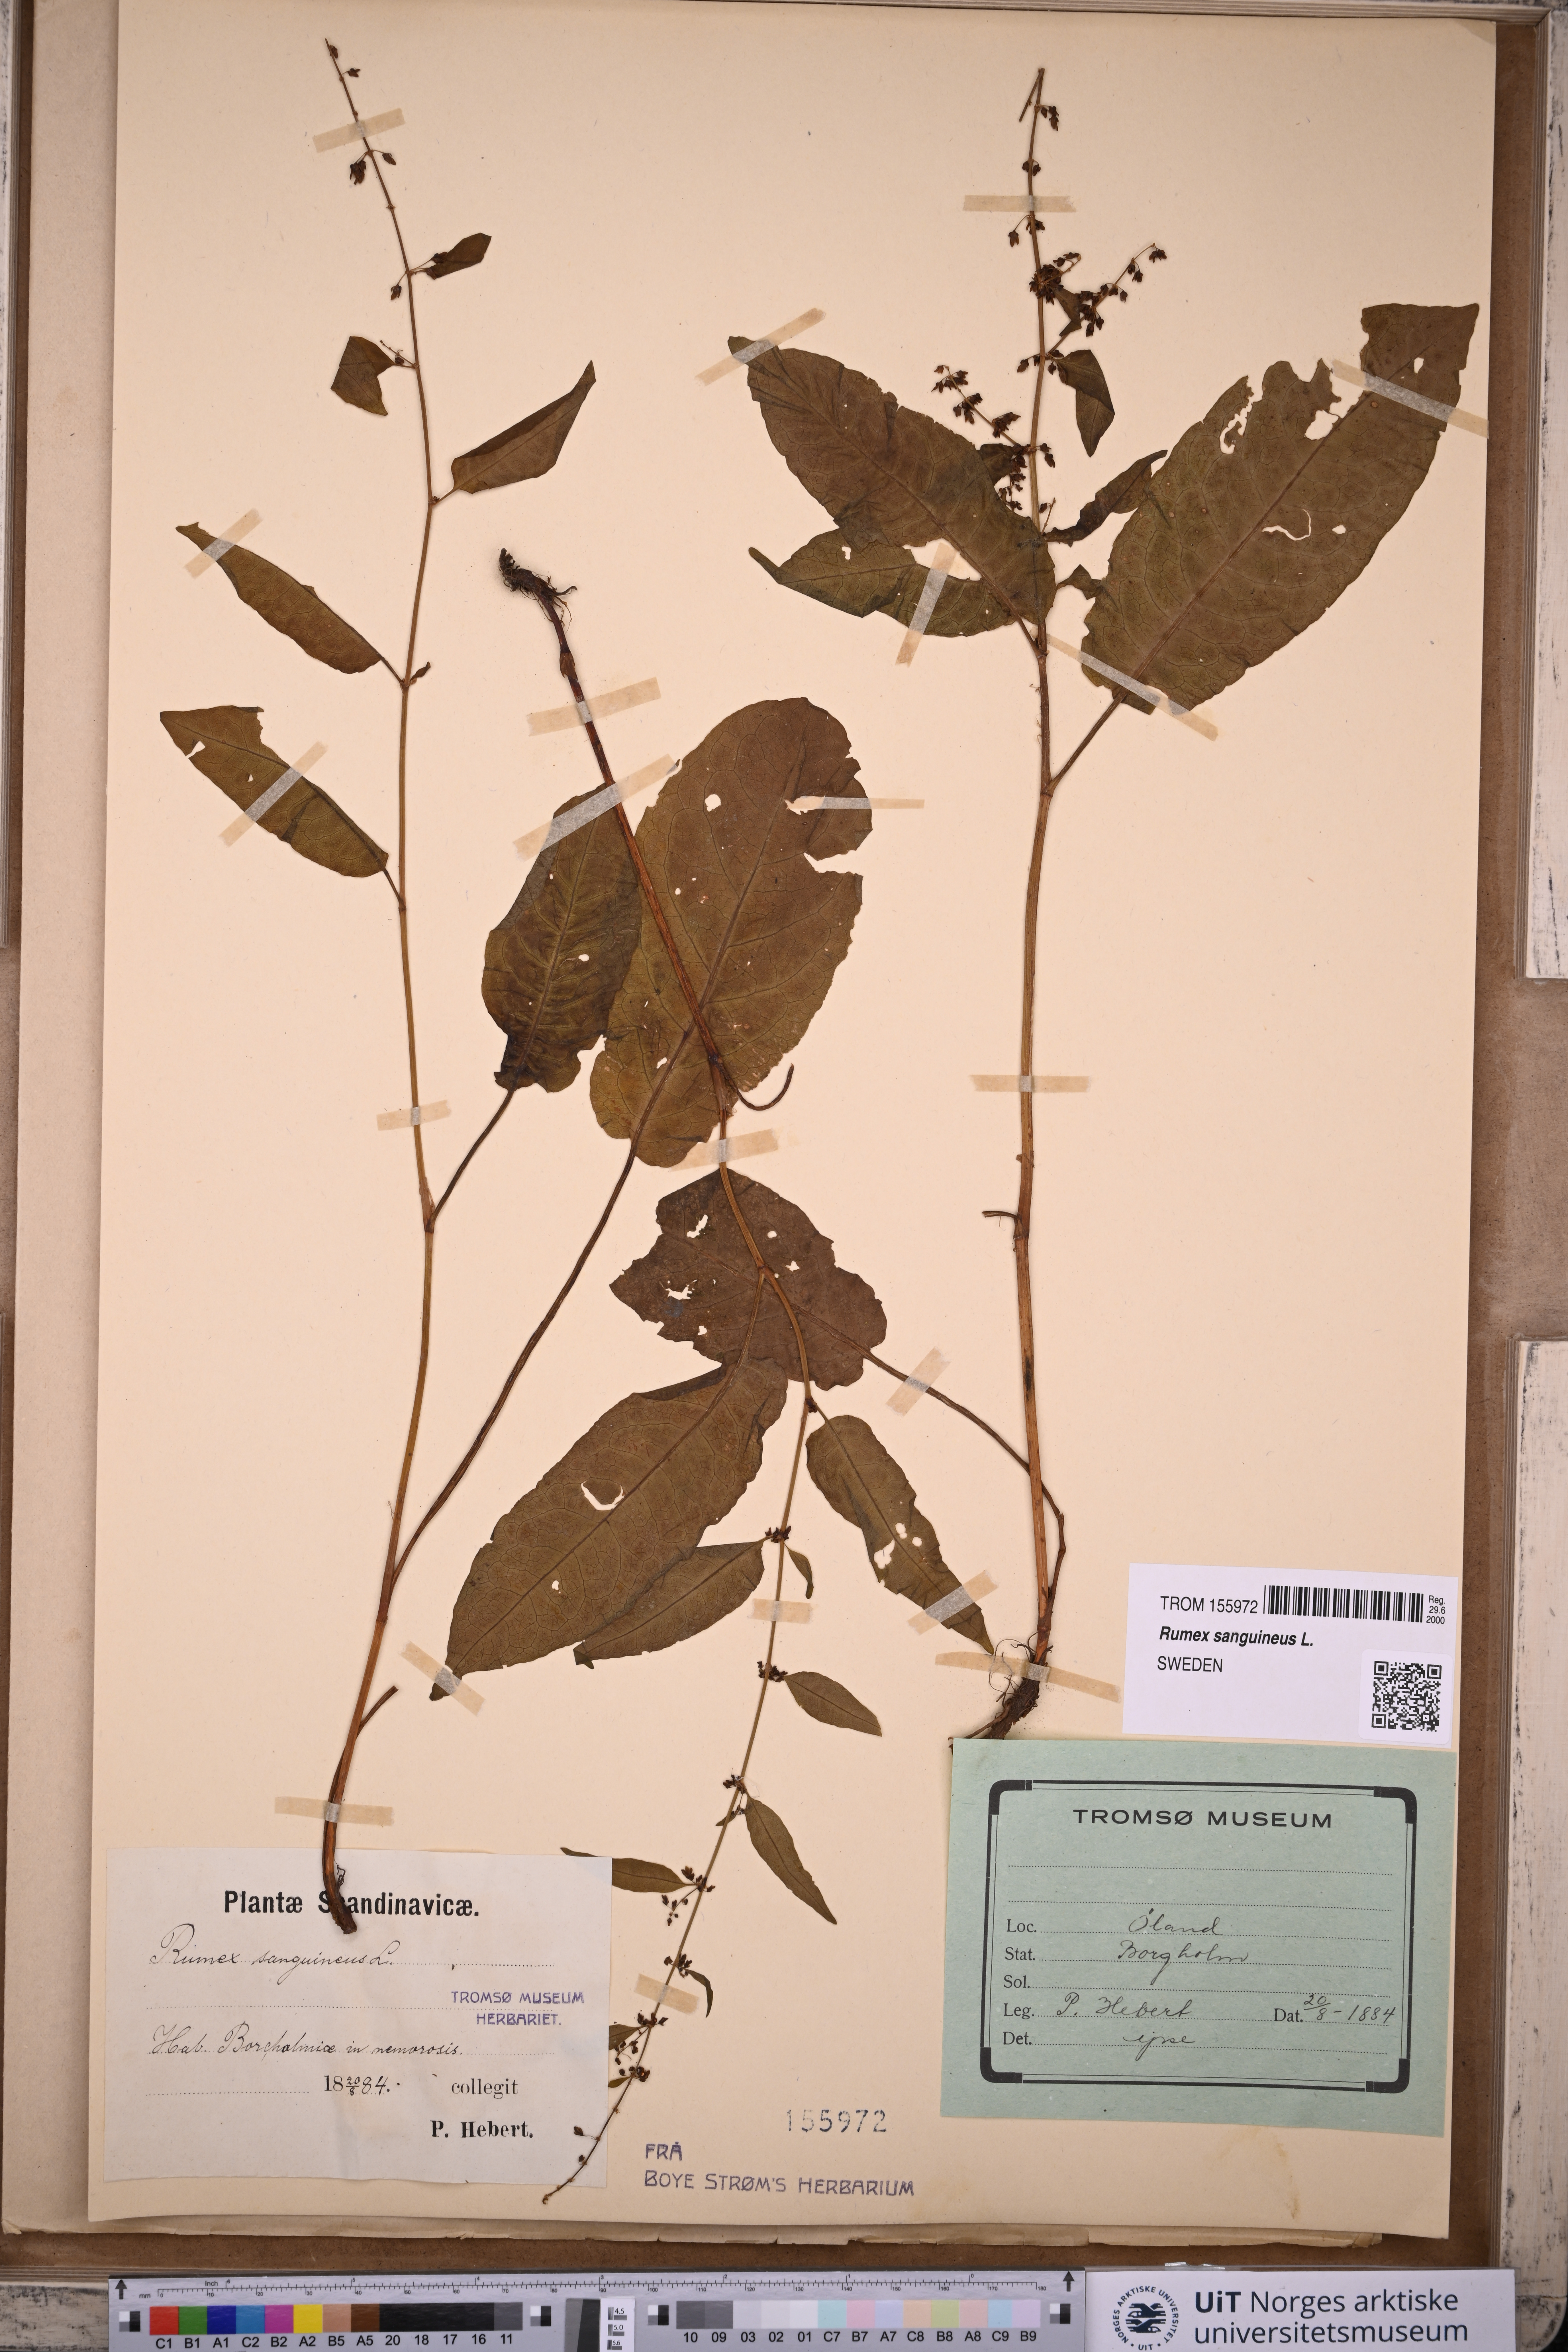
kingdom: Plantae
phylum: Tracheophyta
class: Magnoliopsida
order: Caryophyllales
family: Polygonaceae
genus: Rumex
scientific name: Rumex sanguineus
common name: Wood dock
